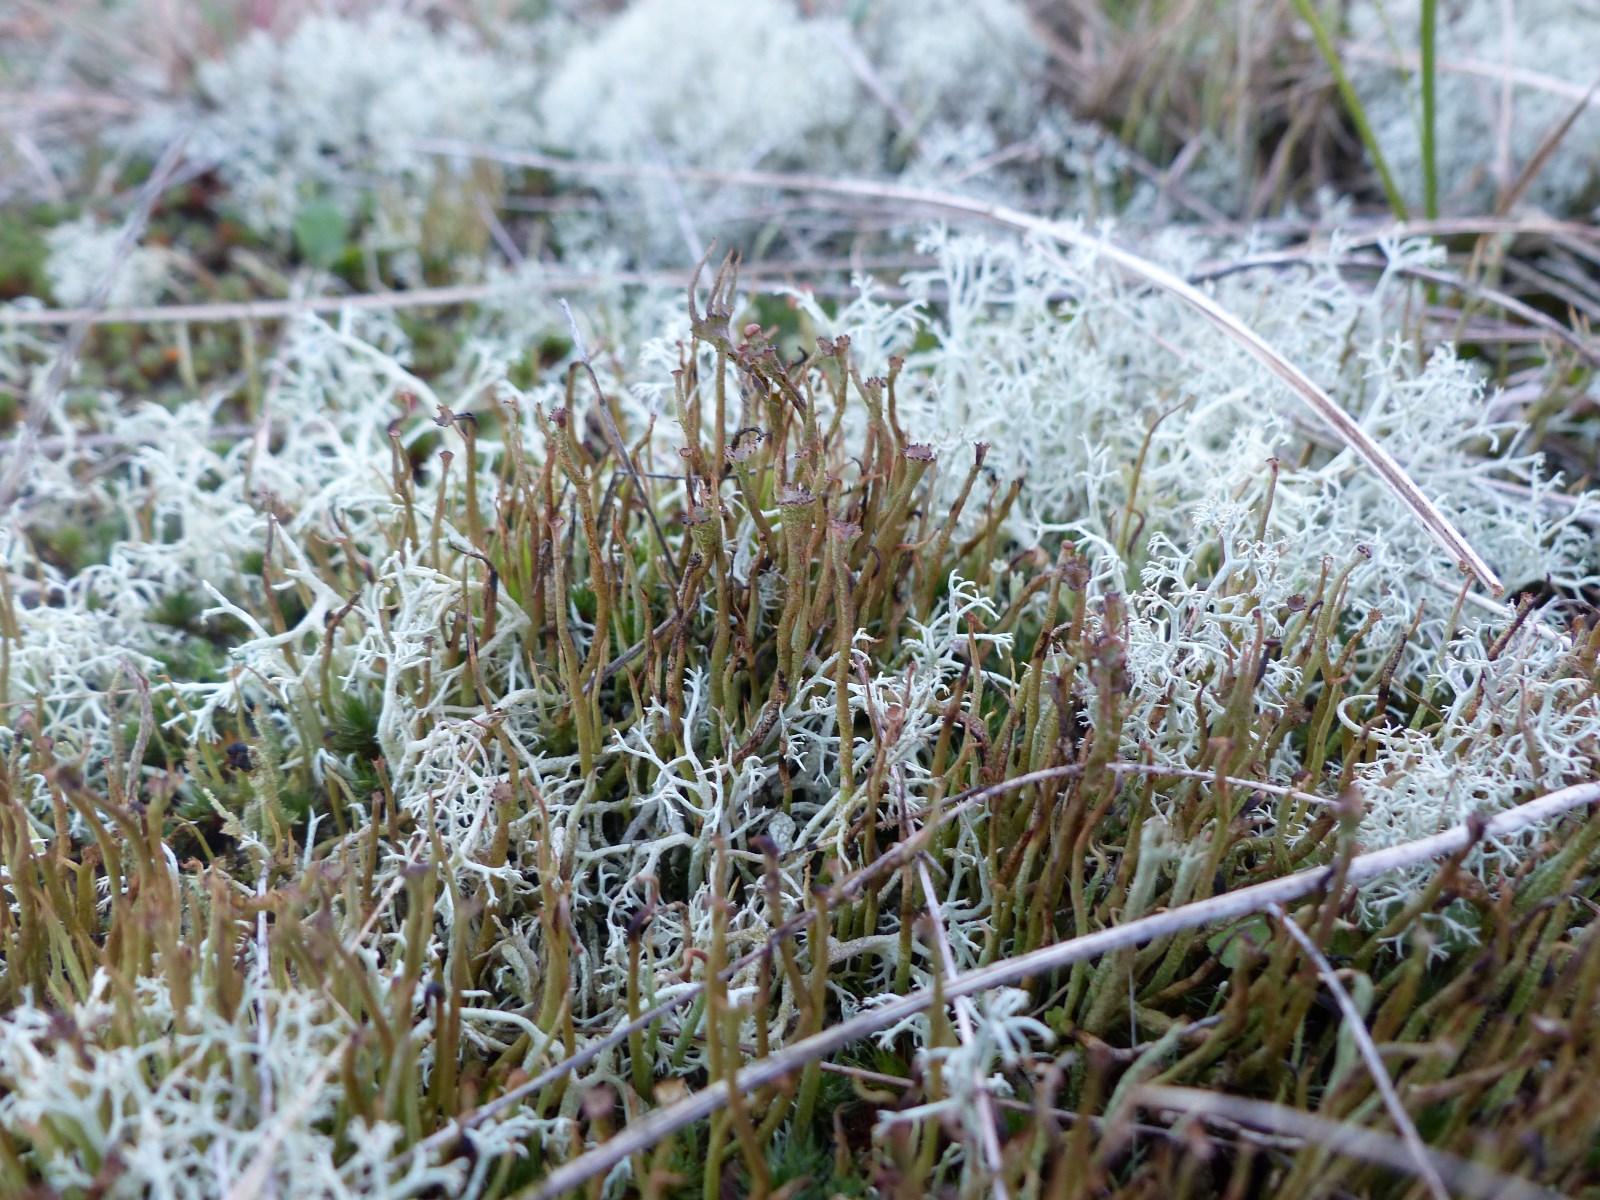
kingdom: Fungi
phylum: Ascomycota
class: Lecanoromycetes
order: Lecanorales
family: Cladoniaceae
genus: Cladonia
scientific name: Cladonia gracilis
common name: slank bægerlav
